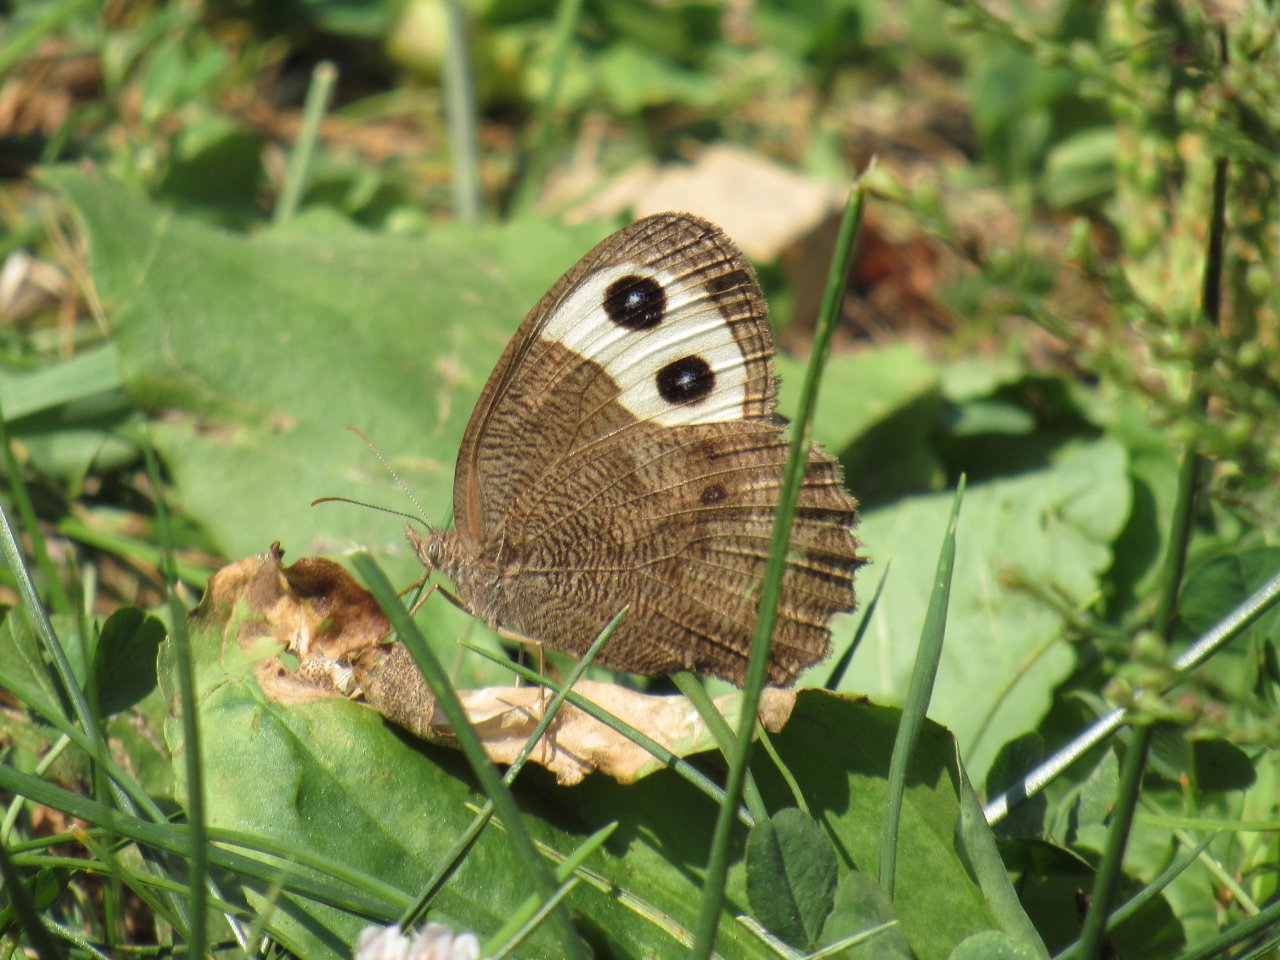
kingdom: Animalia
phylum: Arthropoda
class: Insecta
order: Lepidoptera
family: Nymphalidae
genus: Cercyonis
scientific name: Cercyonis pegala
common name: Common Wood-Nymph
